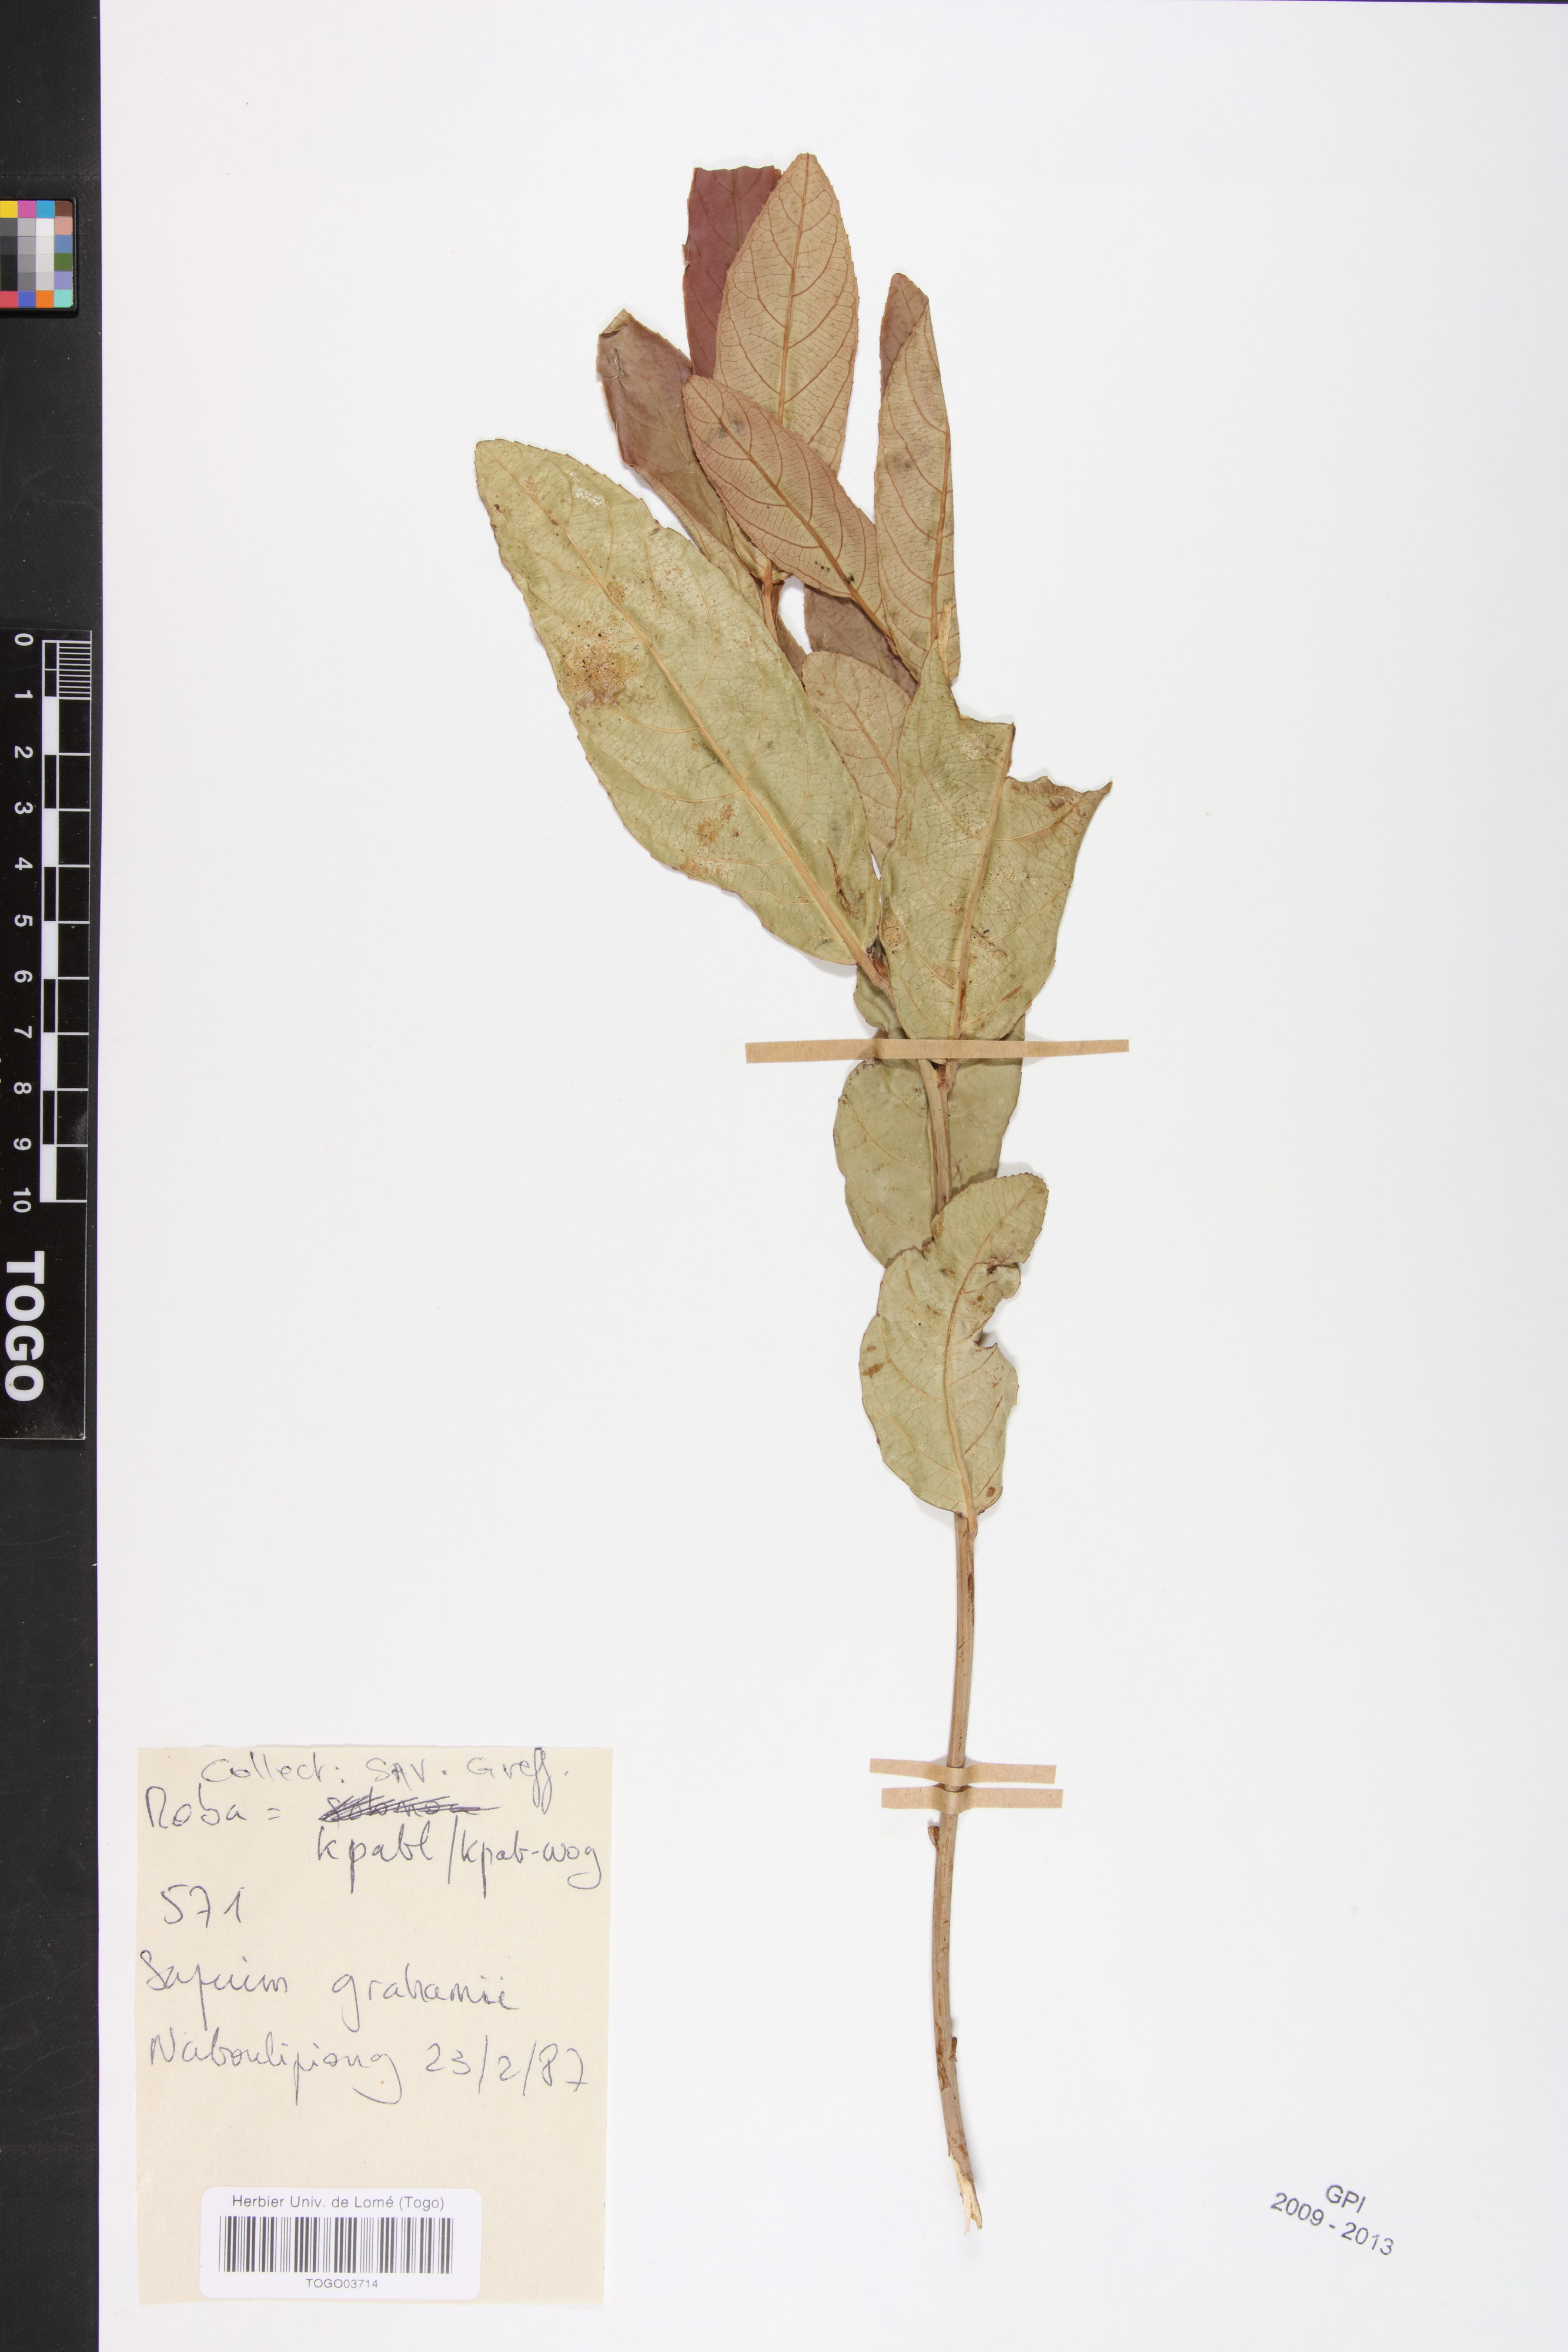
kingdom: Plantae
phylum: Tracheophyta
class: Magnoliopsida
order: Malpighiales
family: Euphorbiaceae
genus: Excoecaria
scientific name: Excoecaria grahamii
